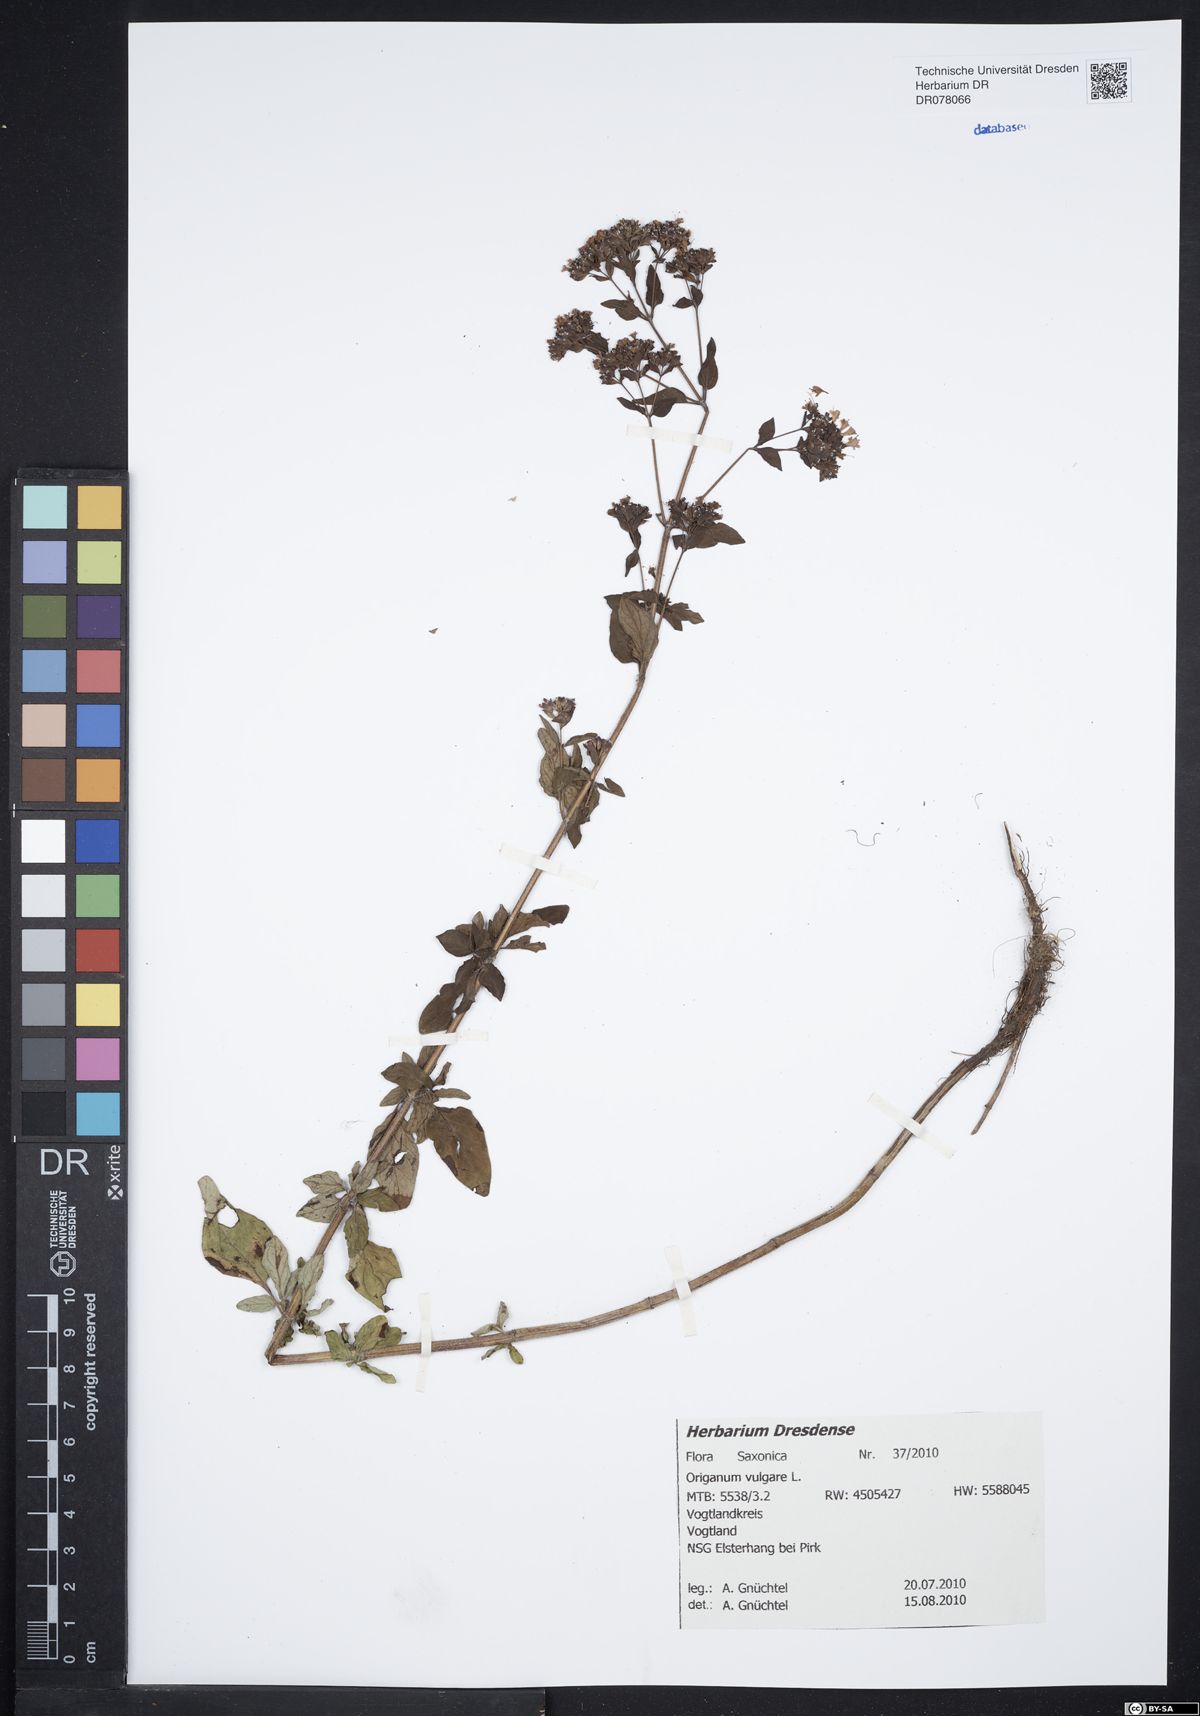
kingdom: Plantae
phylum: Tracheophyta
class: Magnoliopsida
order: Lamiales
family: Lamiaceae
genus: Origanum
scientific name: Origanum vulgare
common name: Wild marjoram
